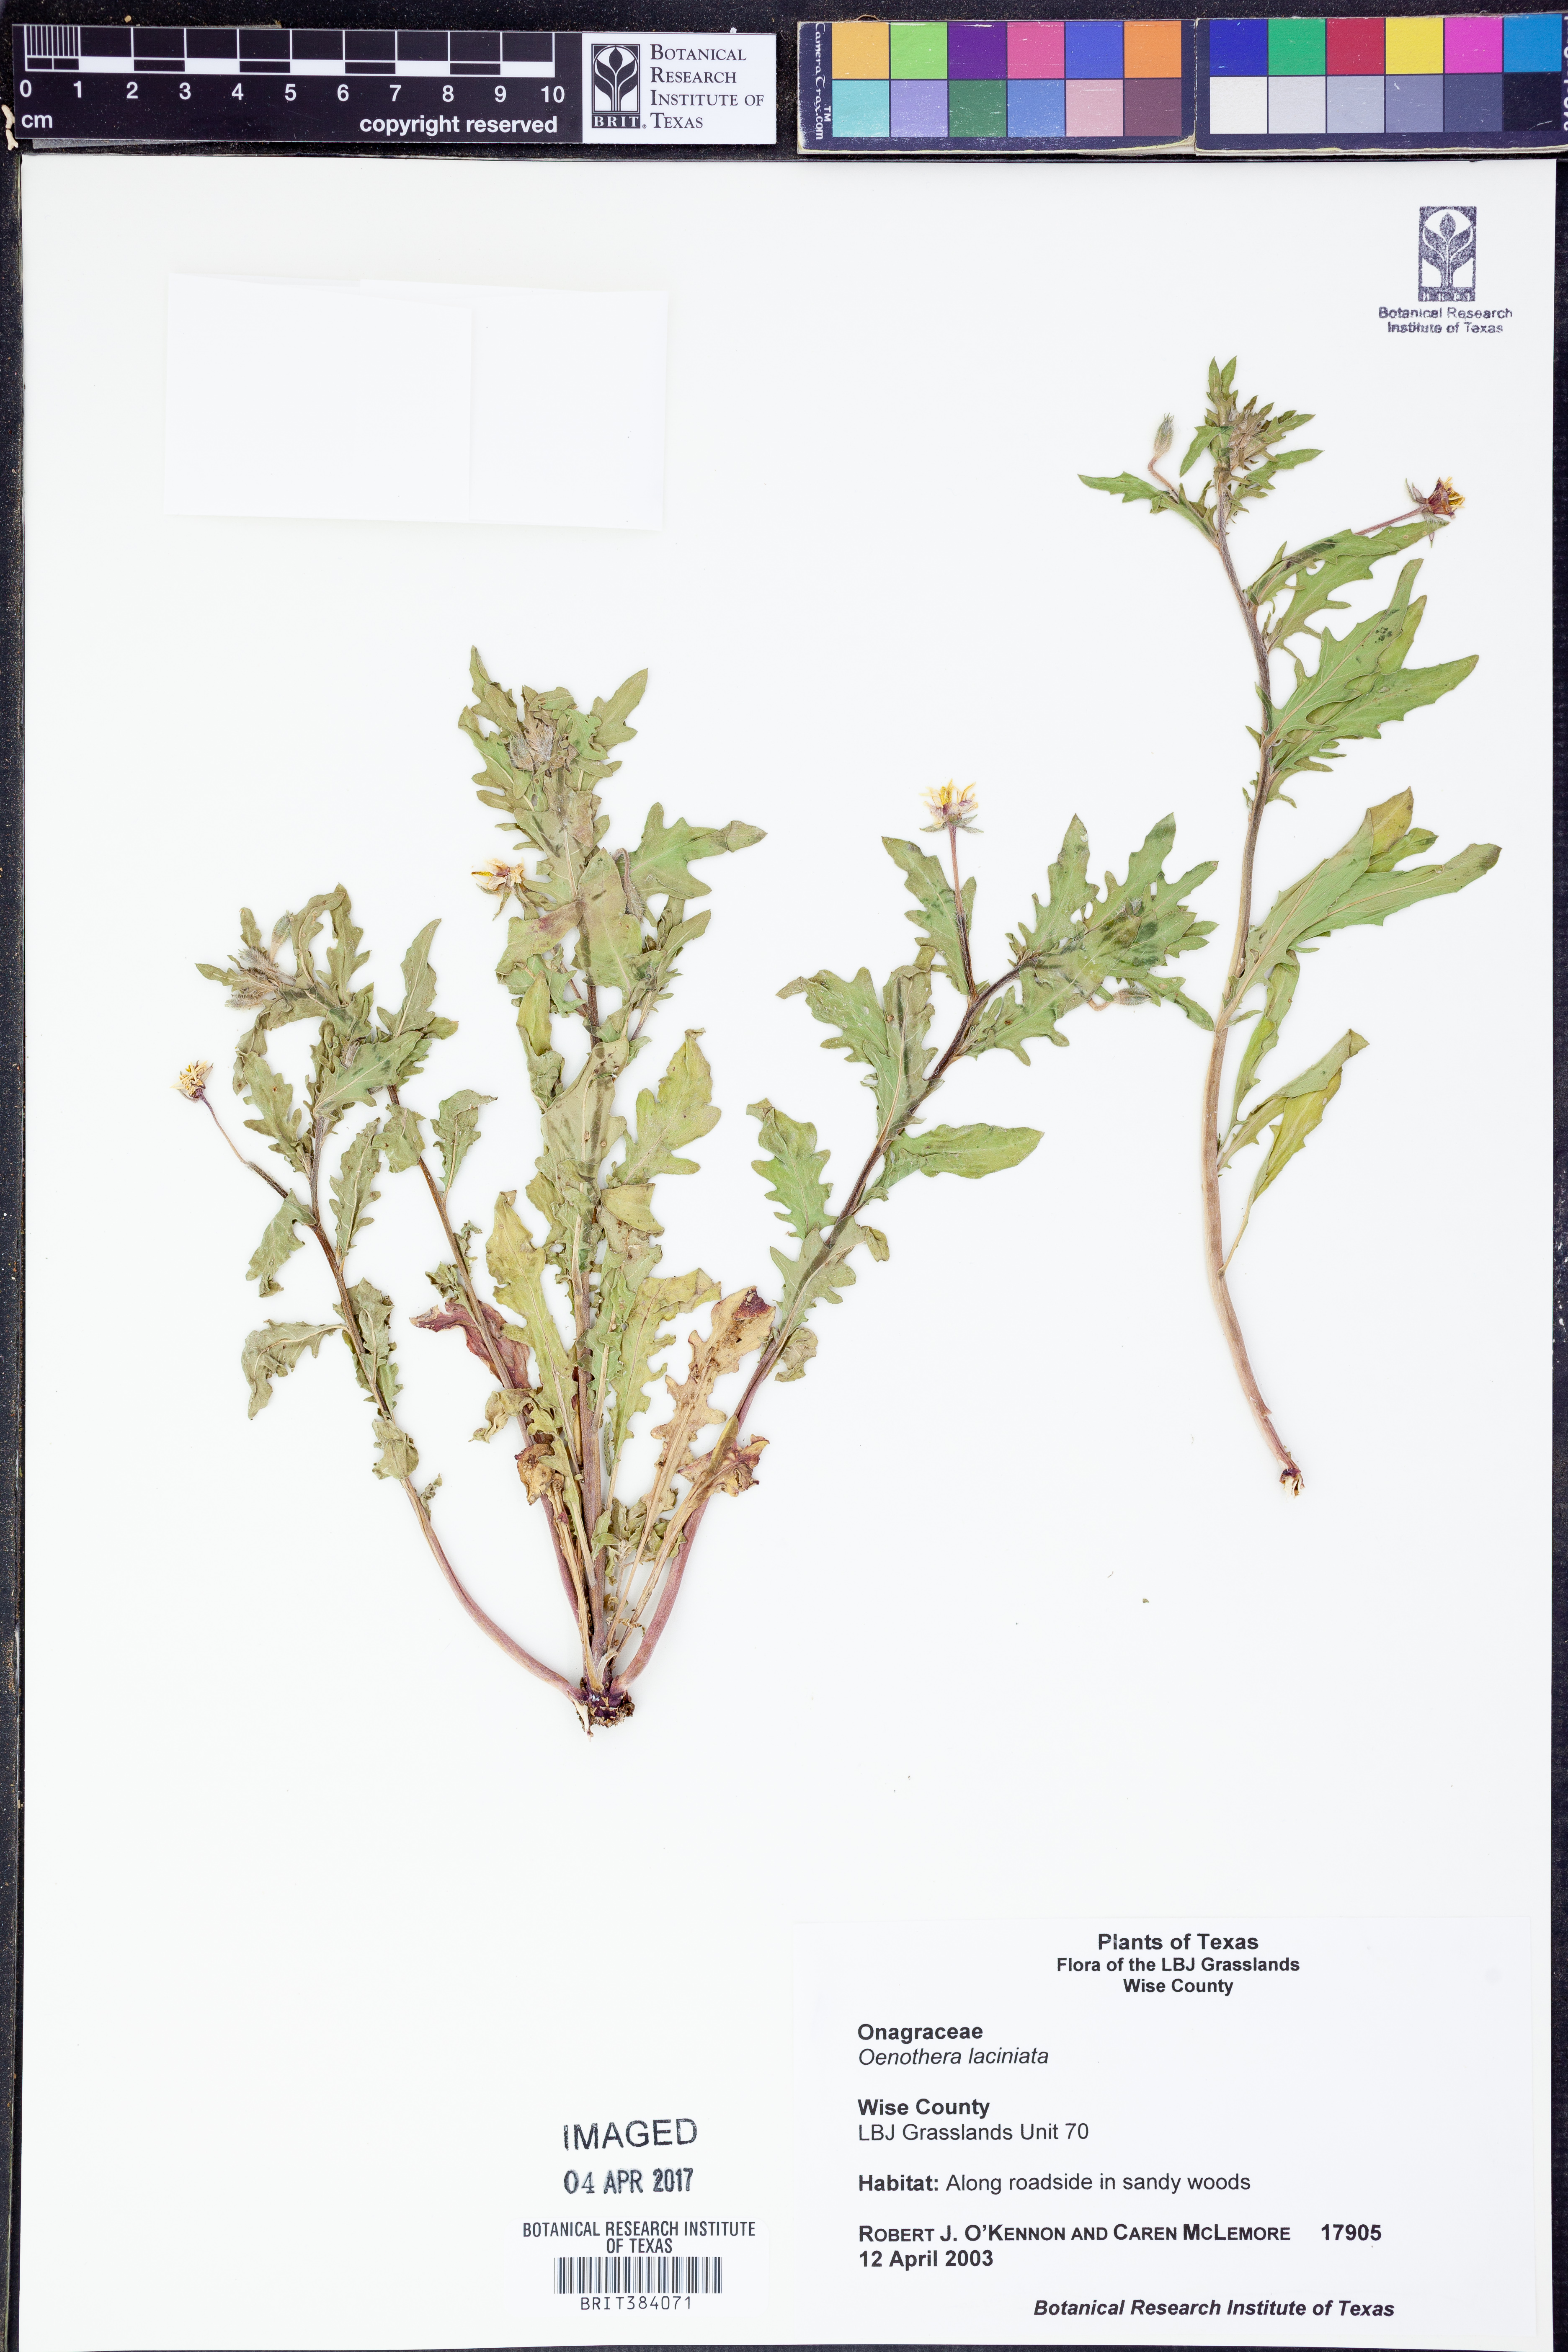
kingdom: Plantae
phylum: Tracheophyta
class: Magnoliopsida
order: Myrtales
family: Onagraceae
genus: Oenothera
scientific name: Oenothera laciniata
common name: Cut-leaved evening-primrose
